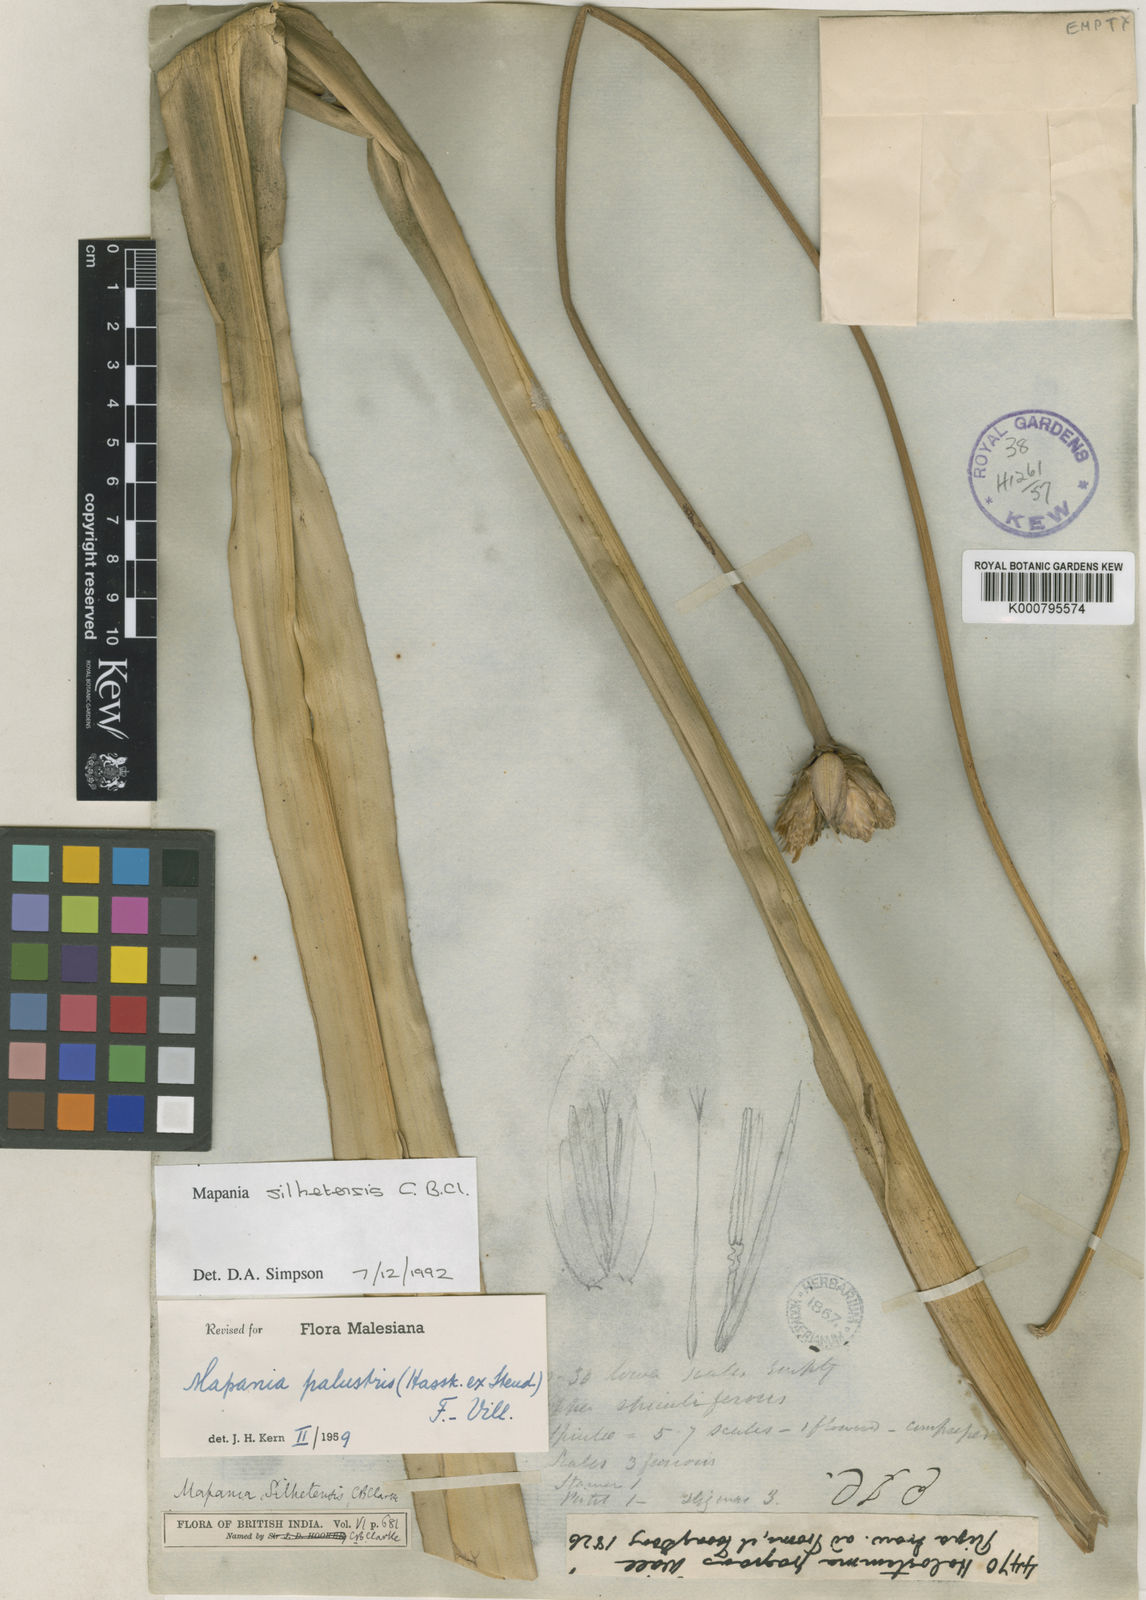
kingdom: Plantae
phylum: Tracheophyta
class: Liliopsida
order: Poales
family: Cyperaceae
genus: Mapania
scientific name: Mapania
